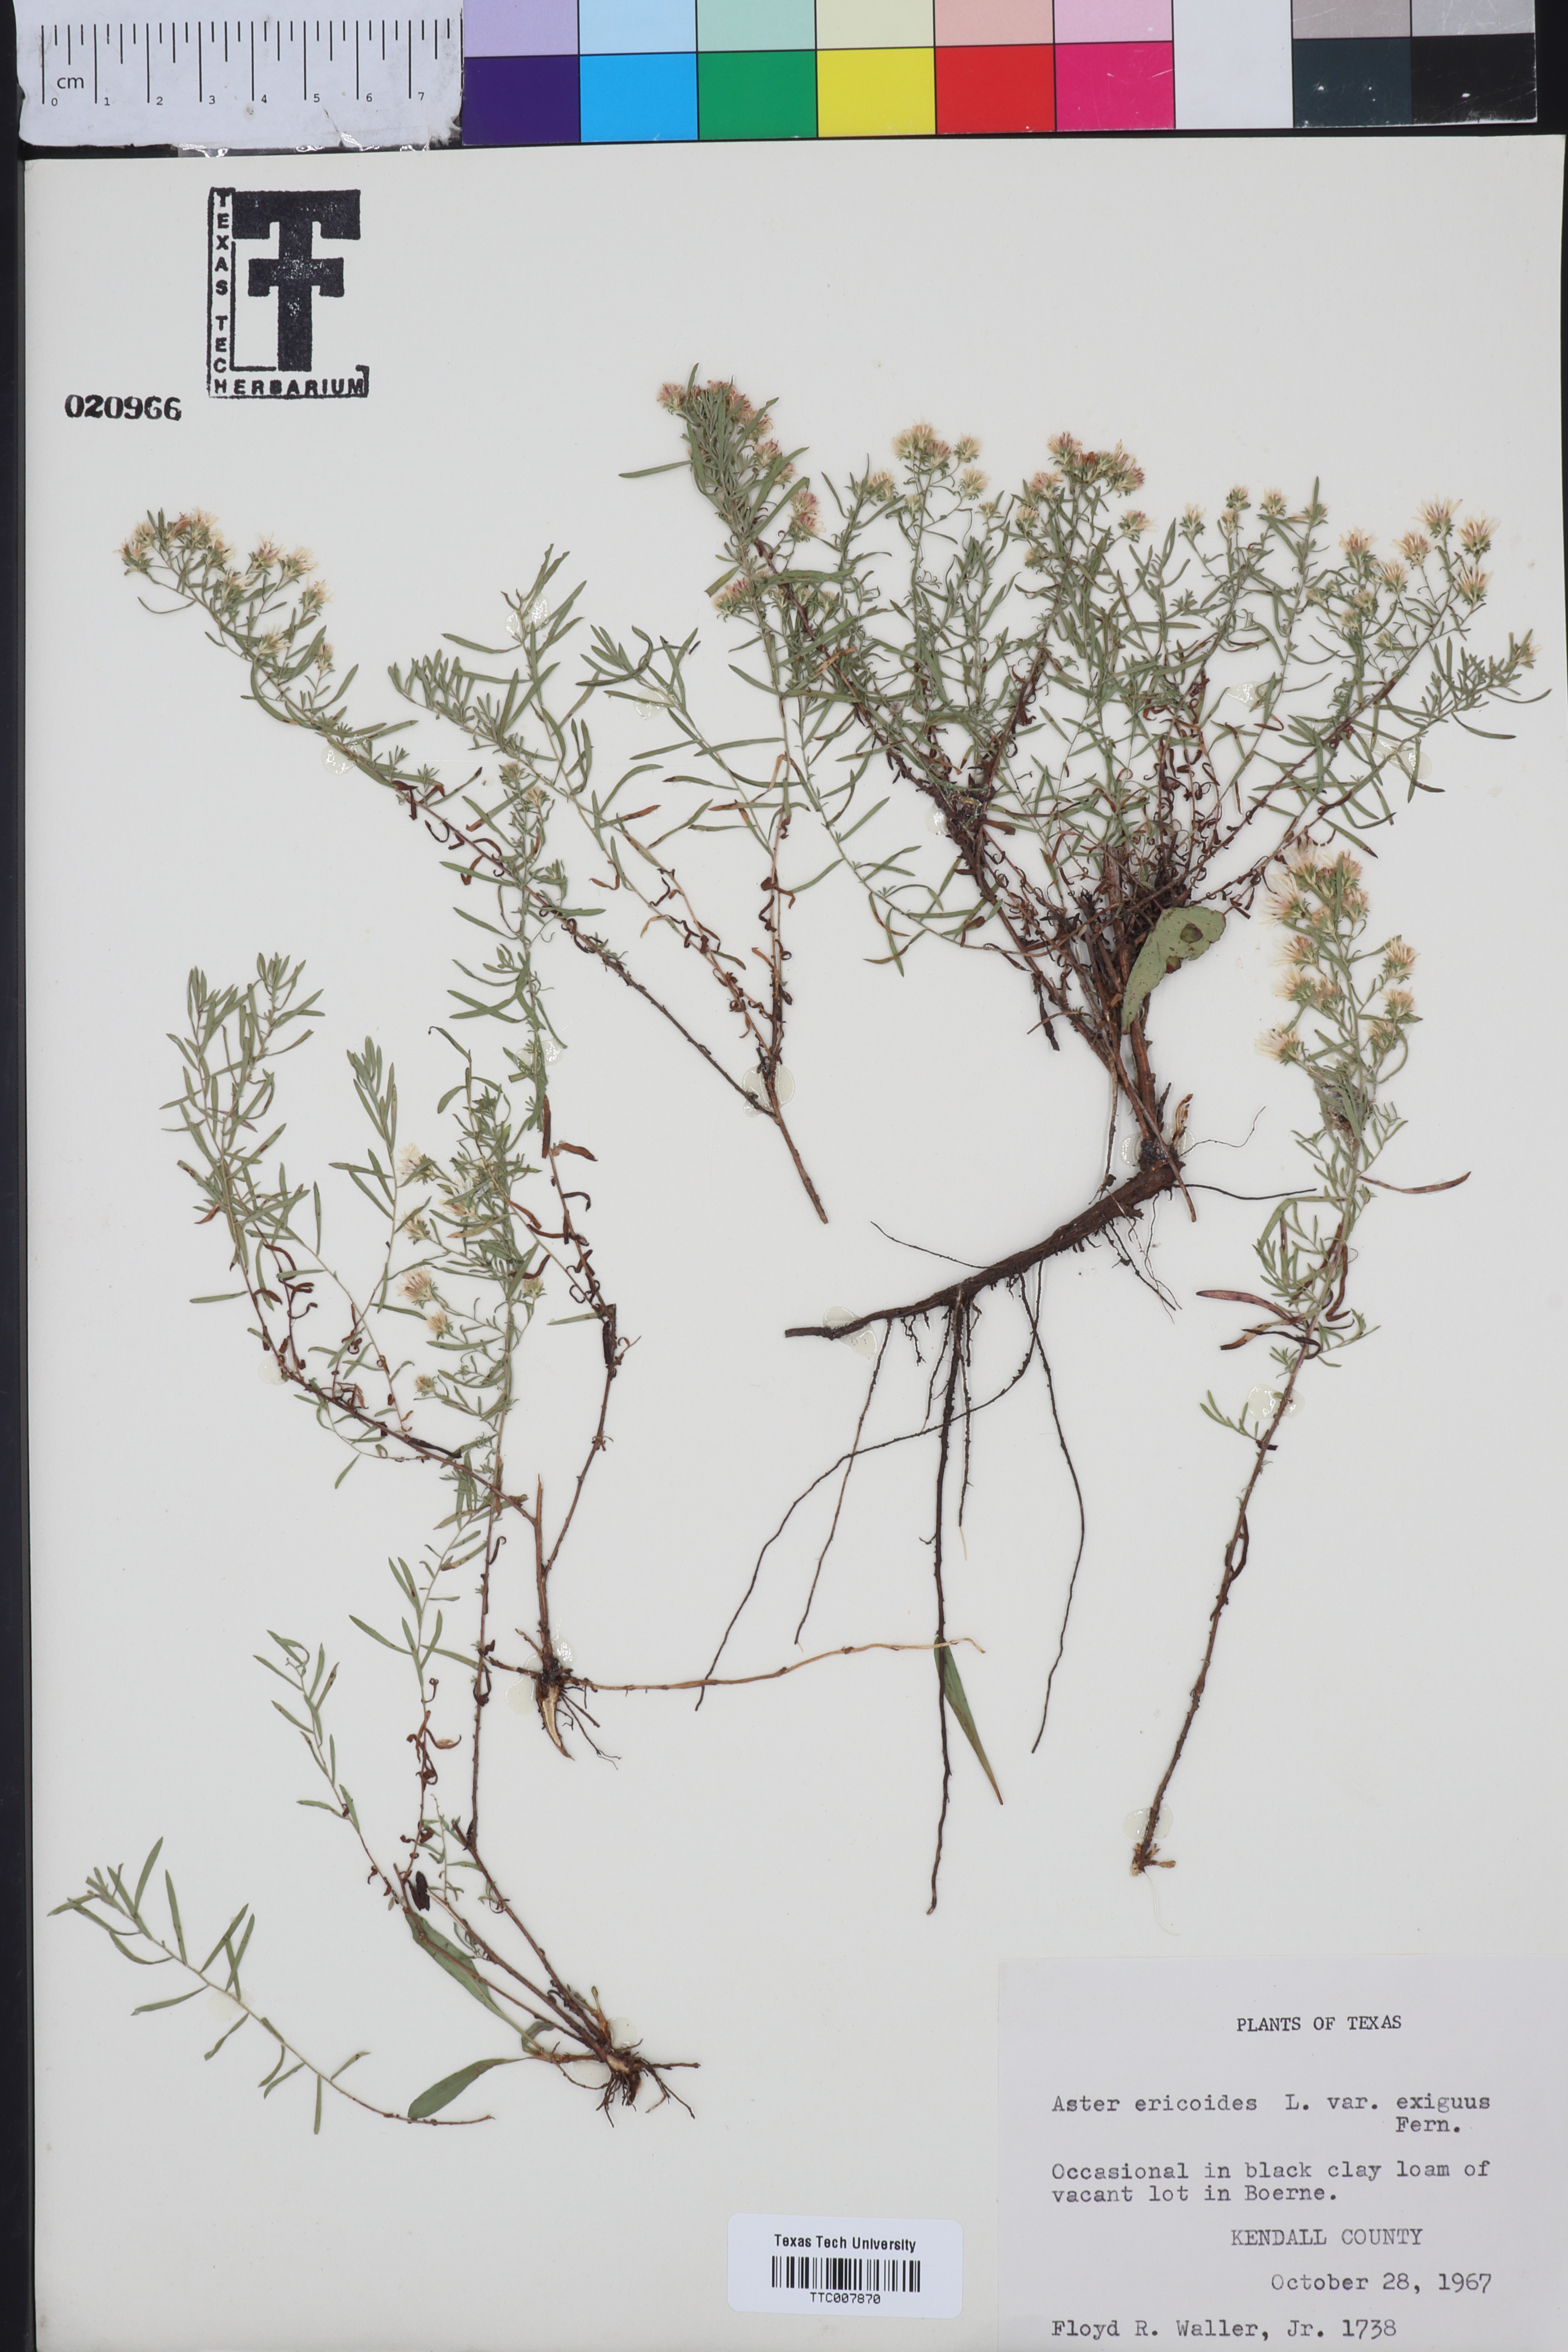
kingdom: Plantae
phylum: Tracheophyta
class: Magnoliopsida
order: Asterales
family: Asteraceae
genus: Symphyotrichum
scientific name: Symphyotrichum ericoides
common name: Heath aster
